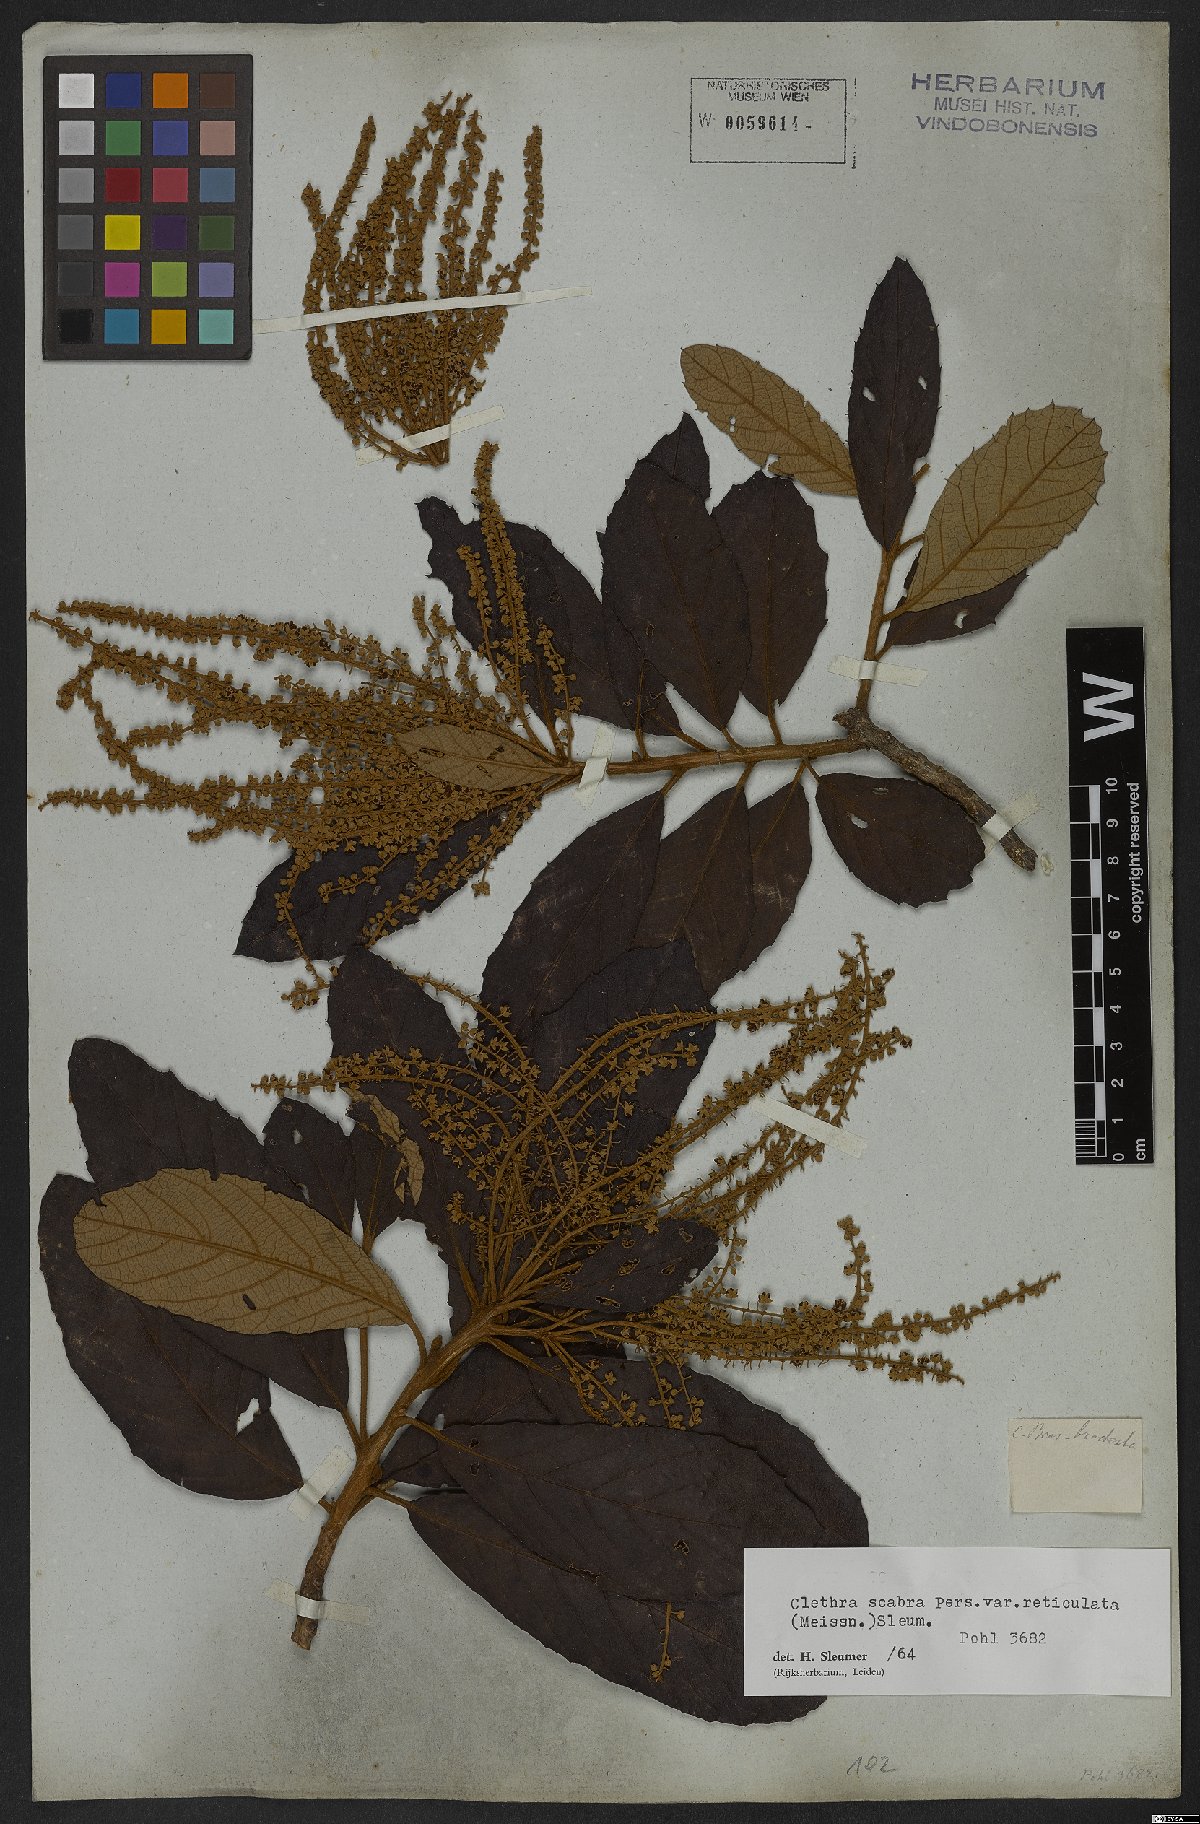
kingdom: Plantae
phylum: Tracheophyta
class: Magnoliopsida
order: Ericales
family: Clethraceae
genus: Clethra
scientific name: Clethra scabra
